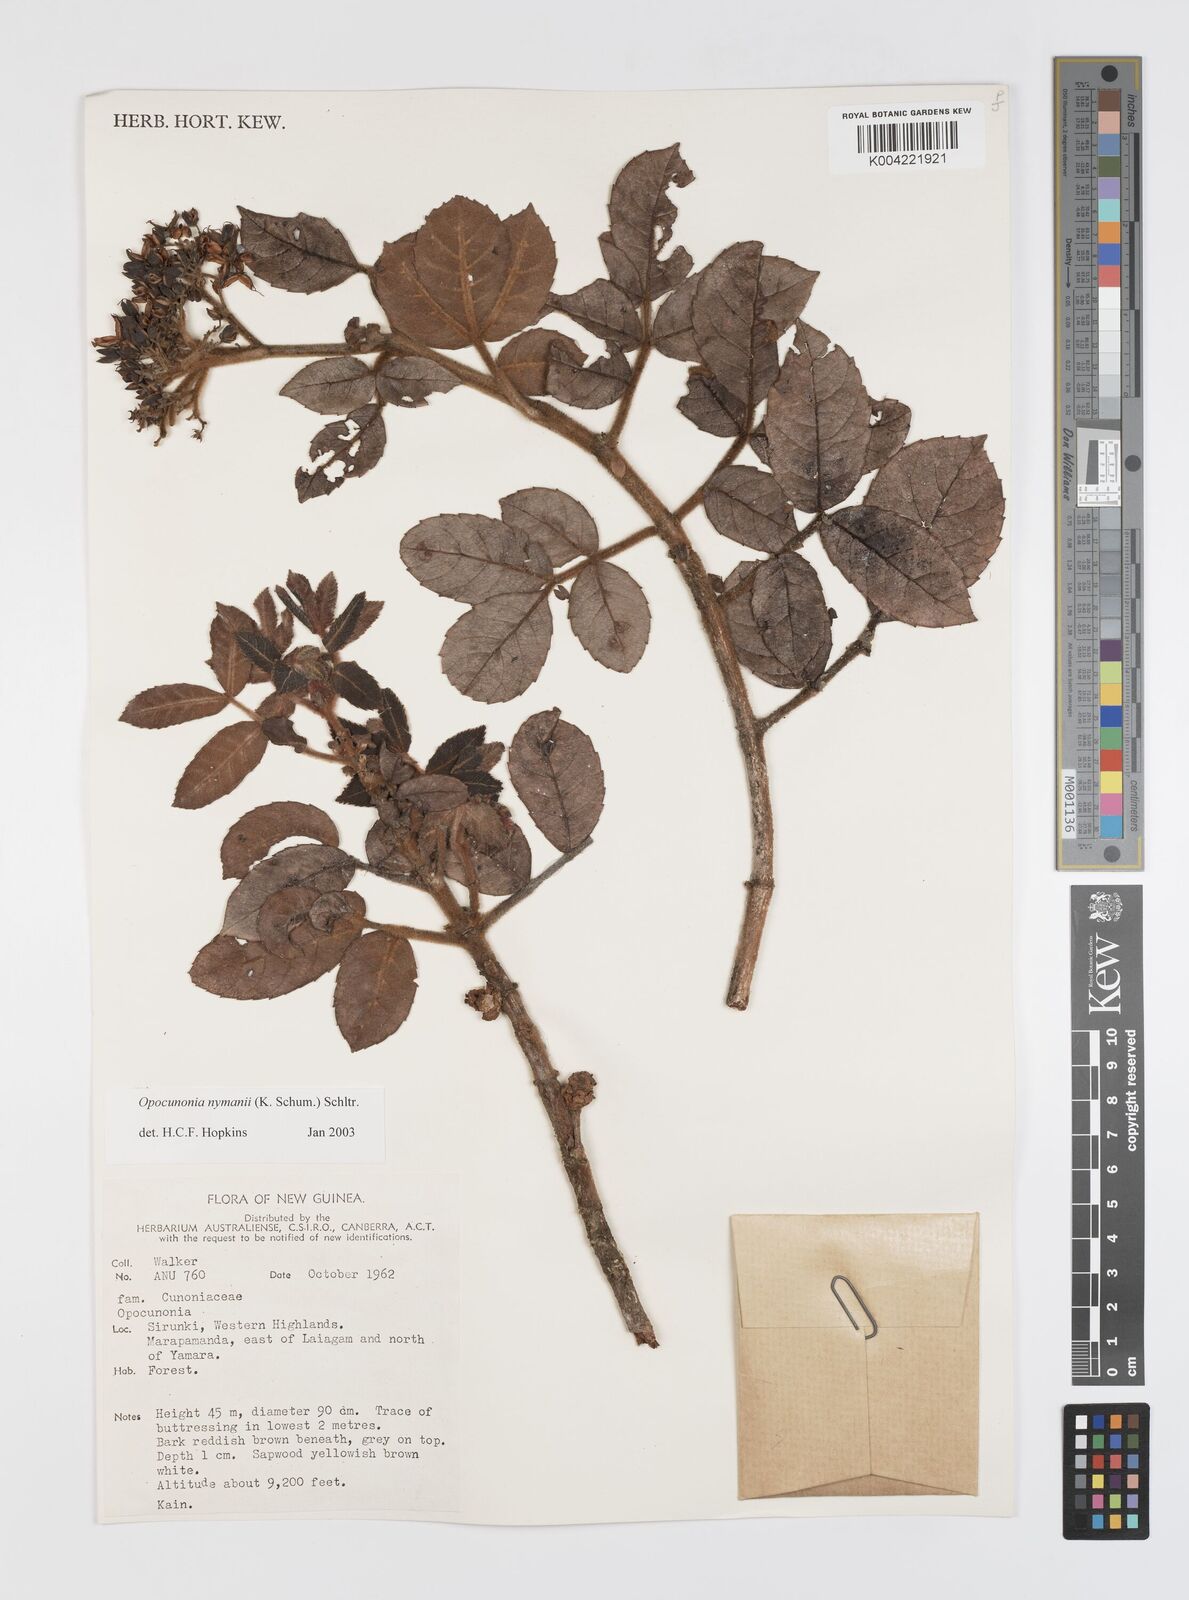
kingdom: Plantae
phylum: Tracheophyta
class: Magnoliopsida
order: Oxalidales
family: Cunoniaceae
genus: Opocunonia
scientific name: Opocunonia nymanii
